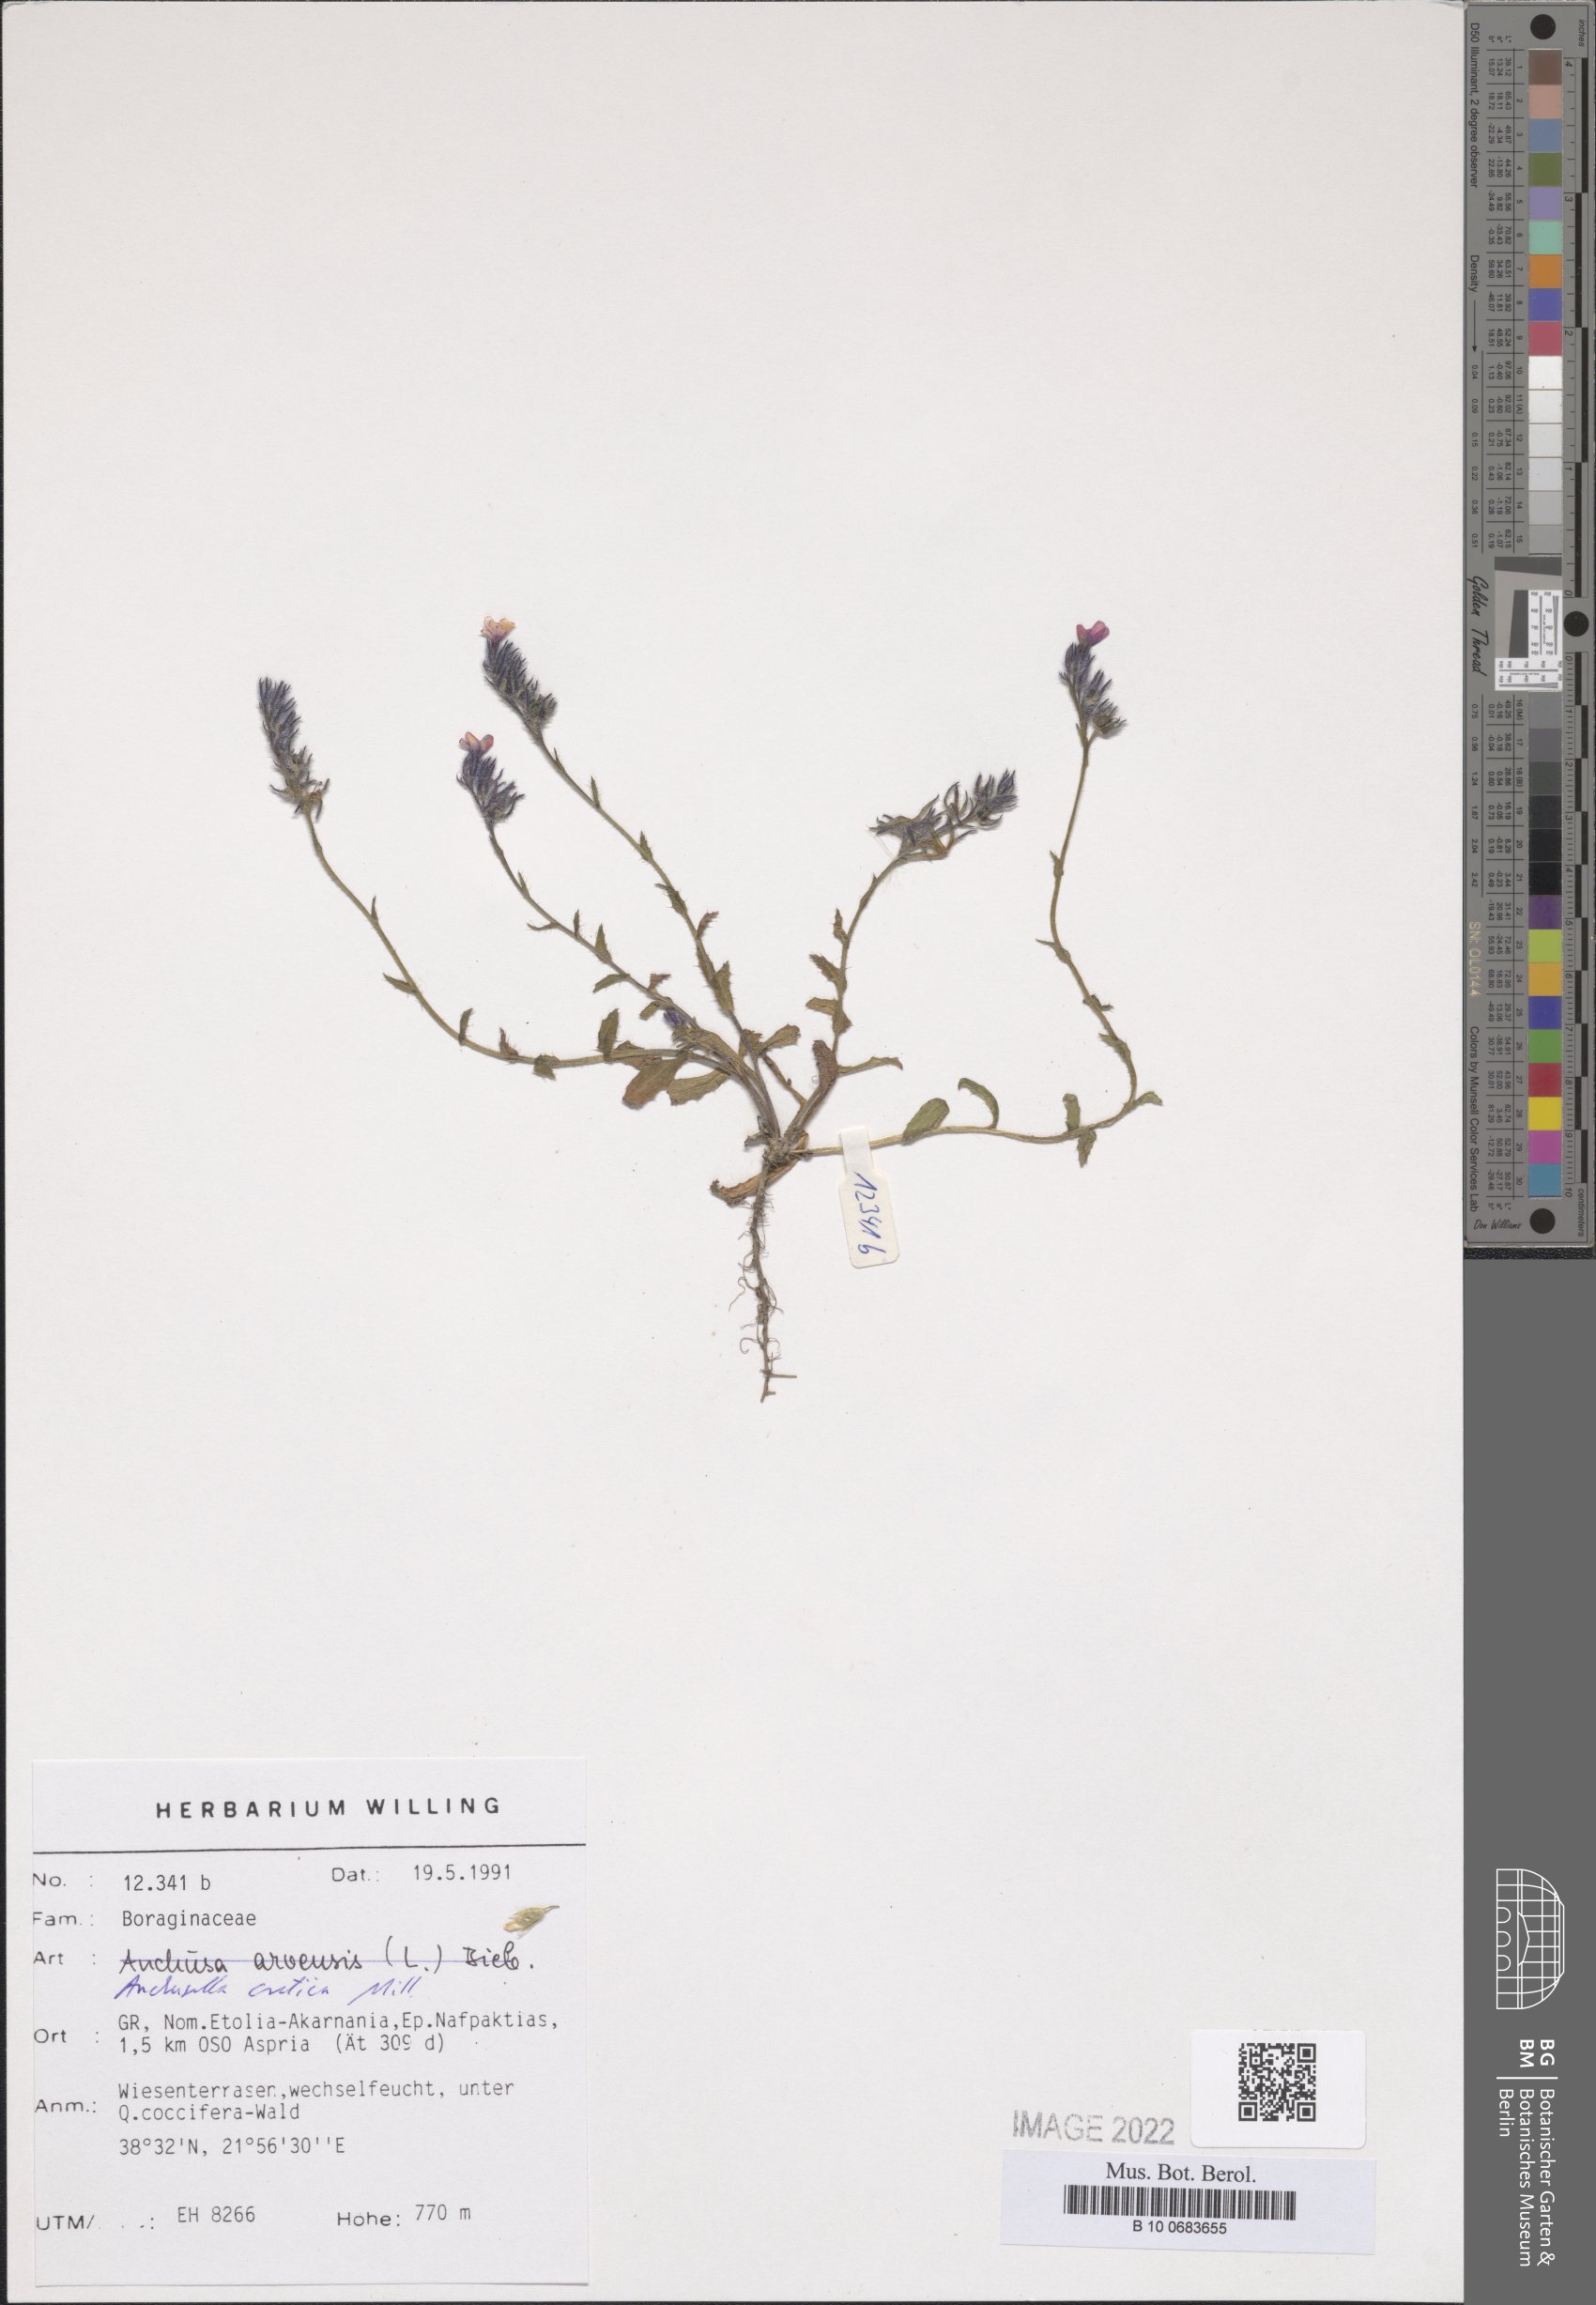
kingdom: Plantae
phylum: Tracheophyta
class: Magnoliopsida
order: Boraginales
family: Boraginaceae
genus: Anchusella
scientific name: Anchusella cretica
